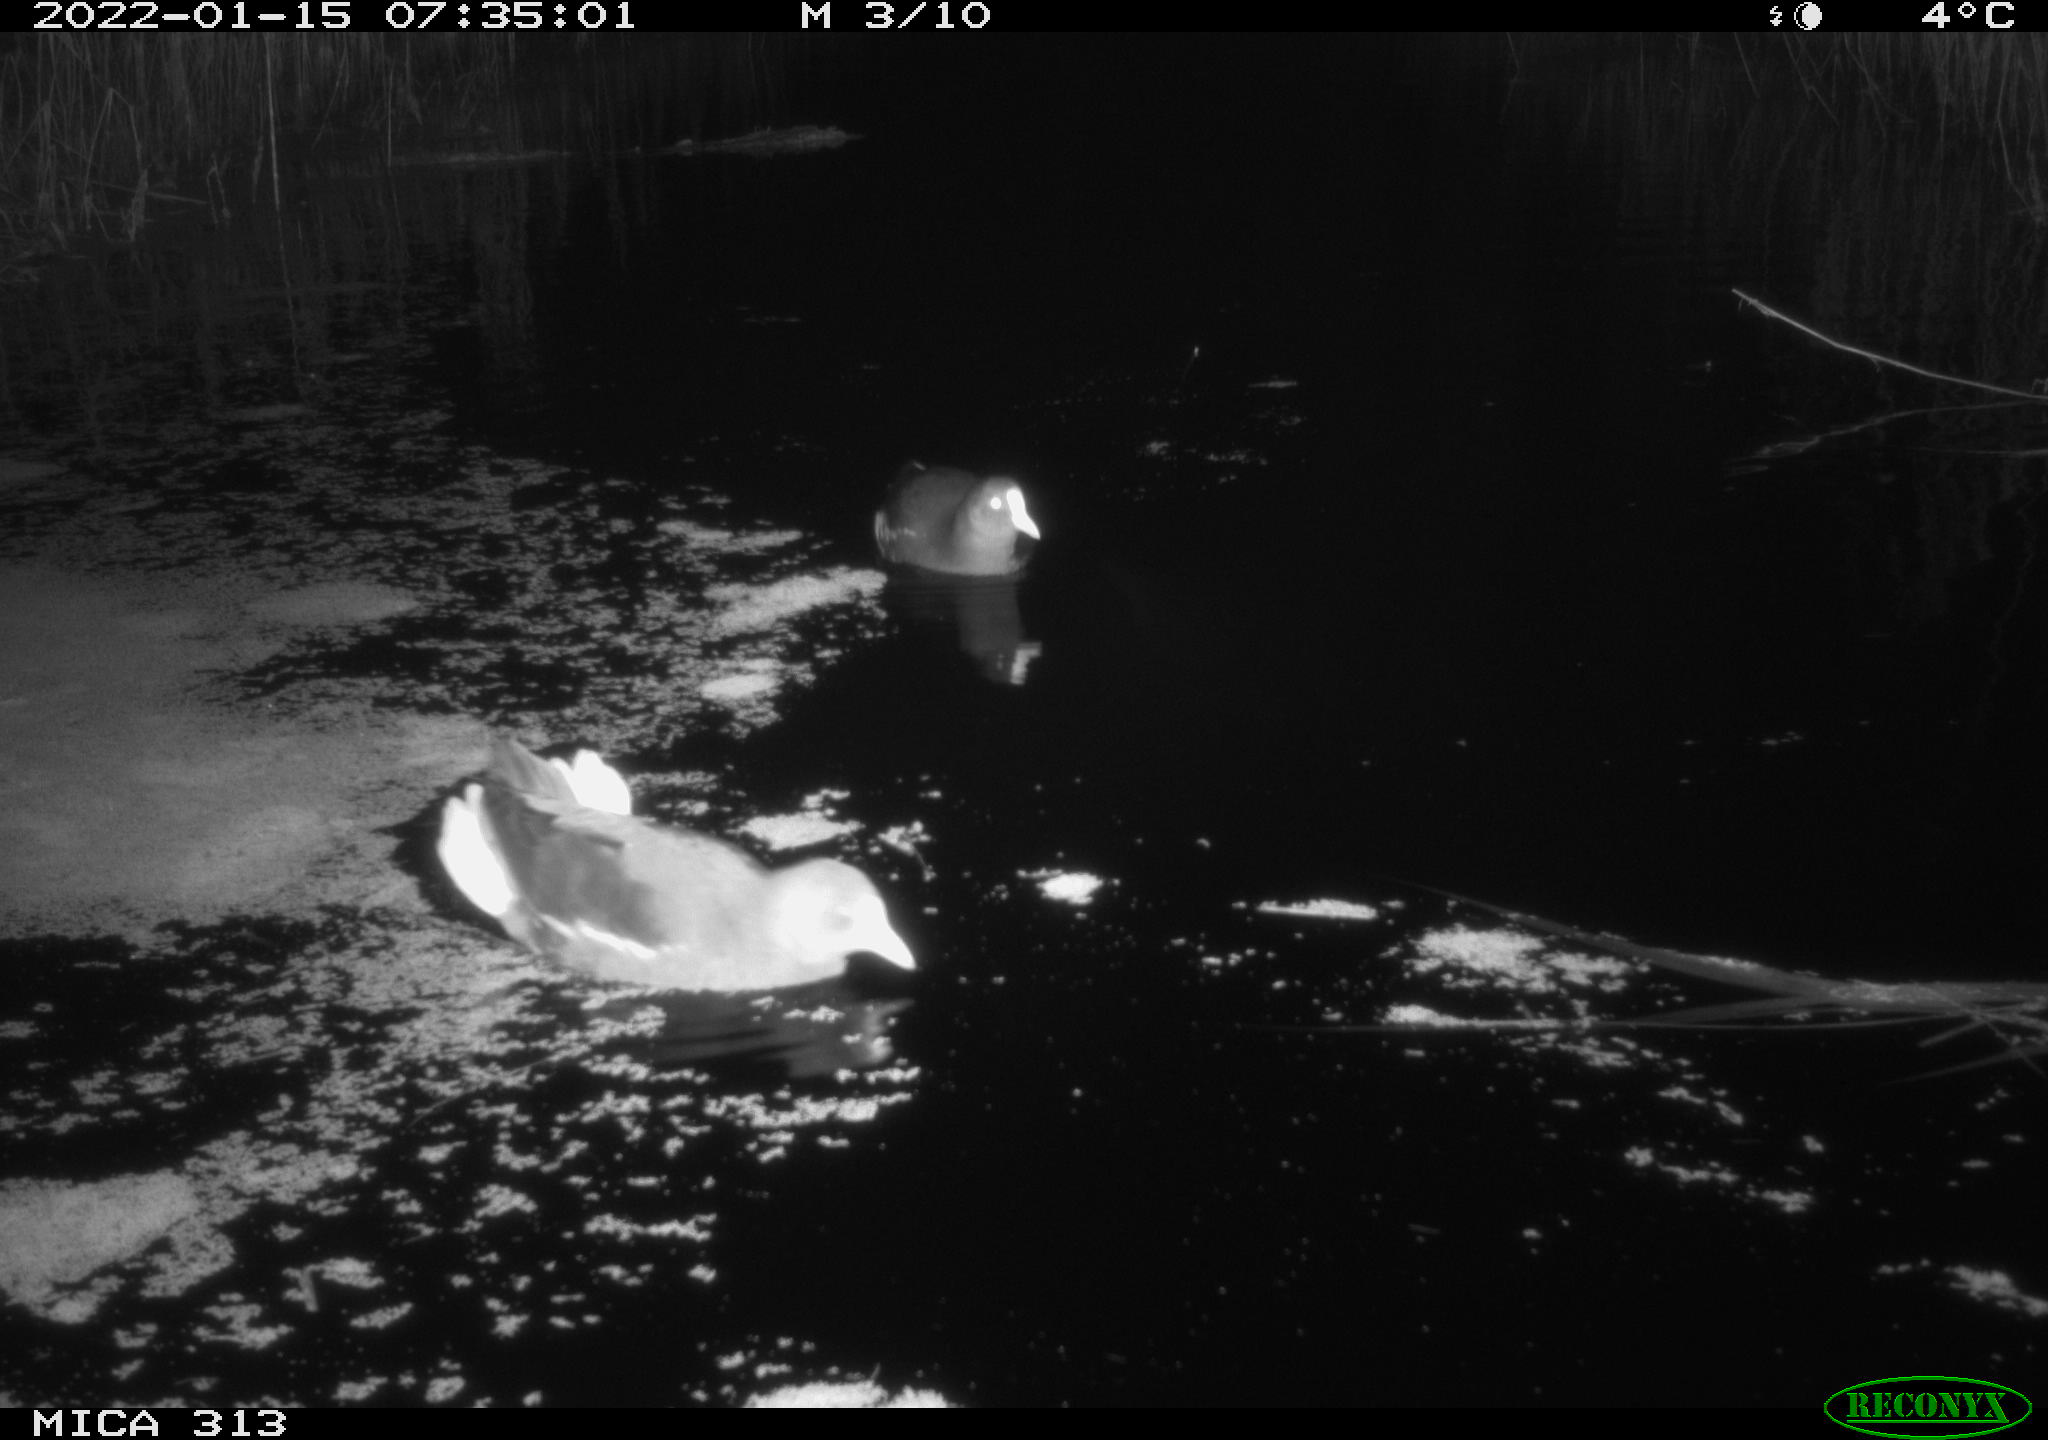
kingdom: Animalia
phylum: Chordata
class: Aves
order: Gruiformes
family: Rallidae
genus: Gallinula
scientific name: Gallinula chloropus
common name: Common moorhen
